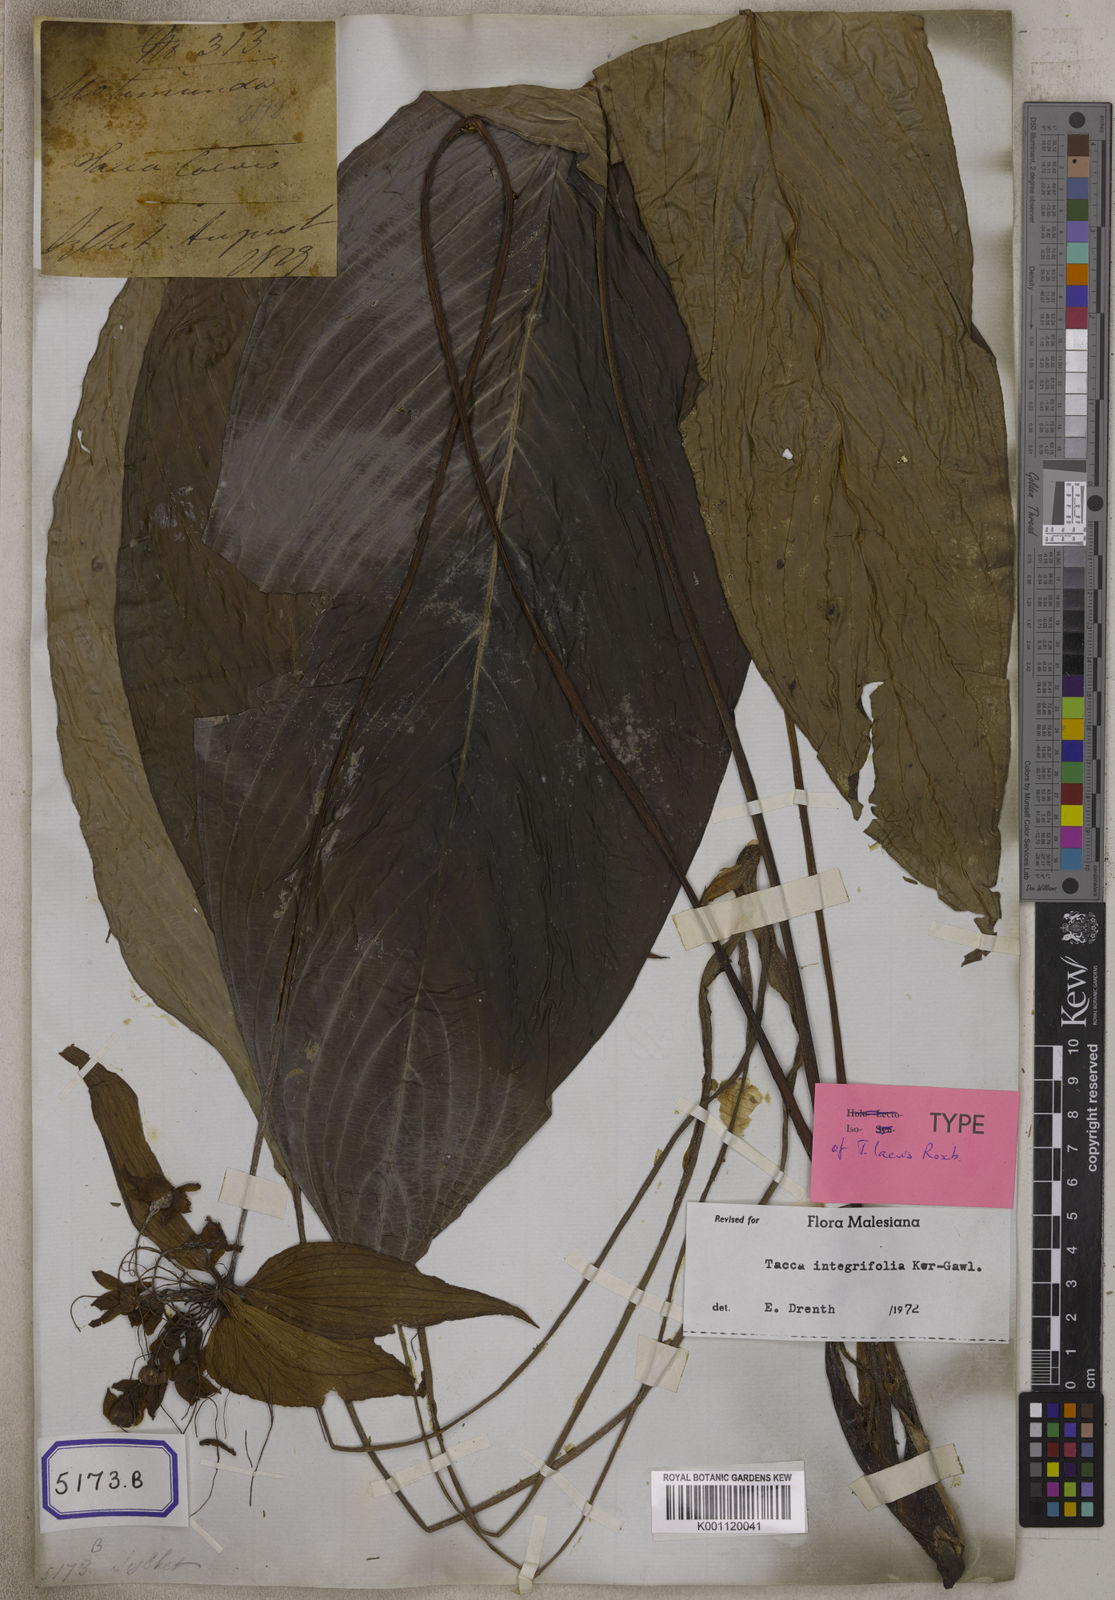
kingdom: Plantae
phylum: Tracheophyta
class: Liliopsida
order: Dioscoreales
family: Dioscoreaceae
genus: Tacca
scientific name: Tacca integrifolia
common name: Batplant
